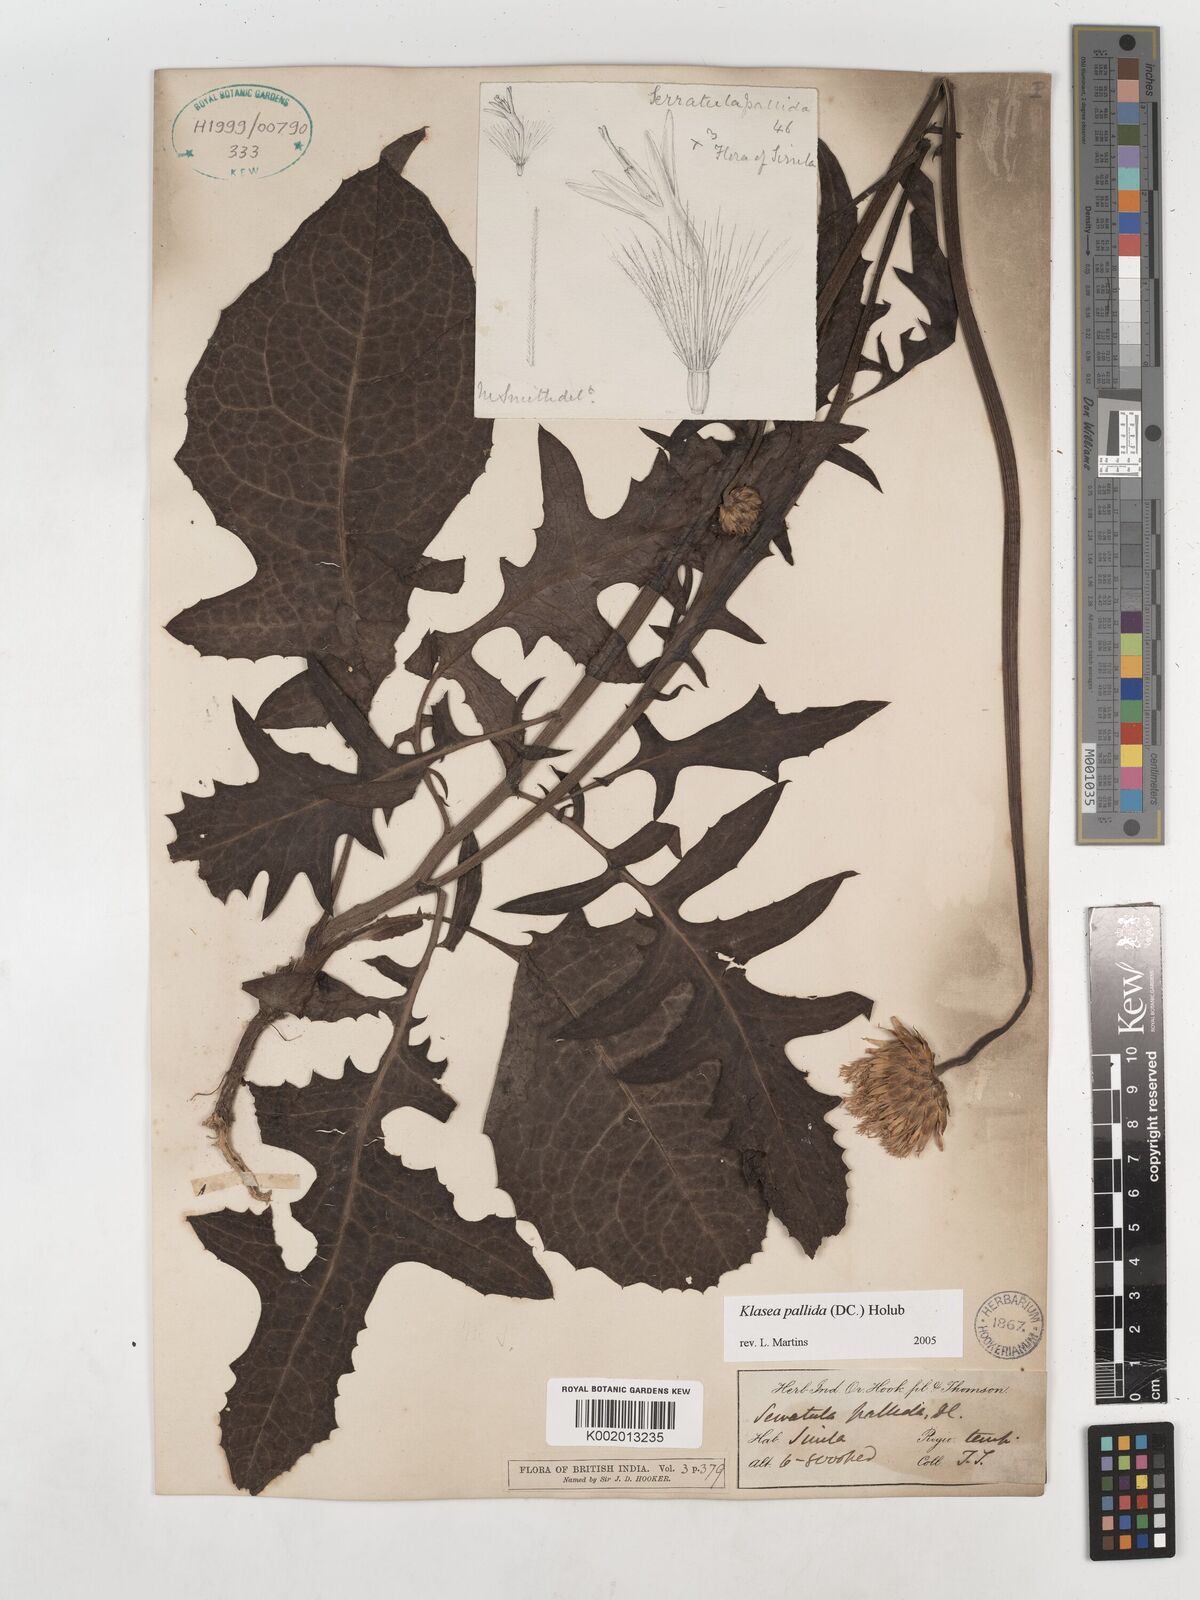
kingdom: Plantae
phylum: Tracheophyta
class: Magnoliopsida
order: Asterales
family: Asteraceae
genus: Klasea
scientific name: Klasea pallida
